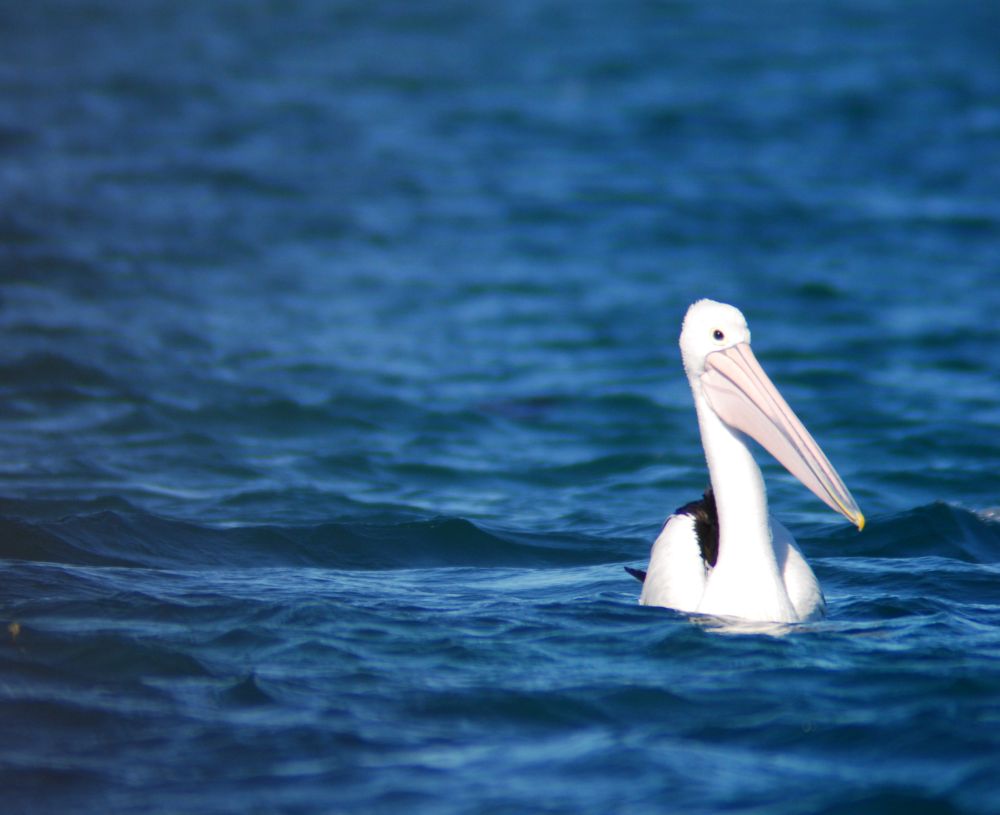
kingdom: Animalia
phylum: Chordata
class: Aves
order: Pelecaniformes
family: Pelecanidae
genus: Pelecanus
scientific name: Pelecanus conspicillatus
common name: Australian pelican
